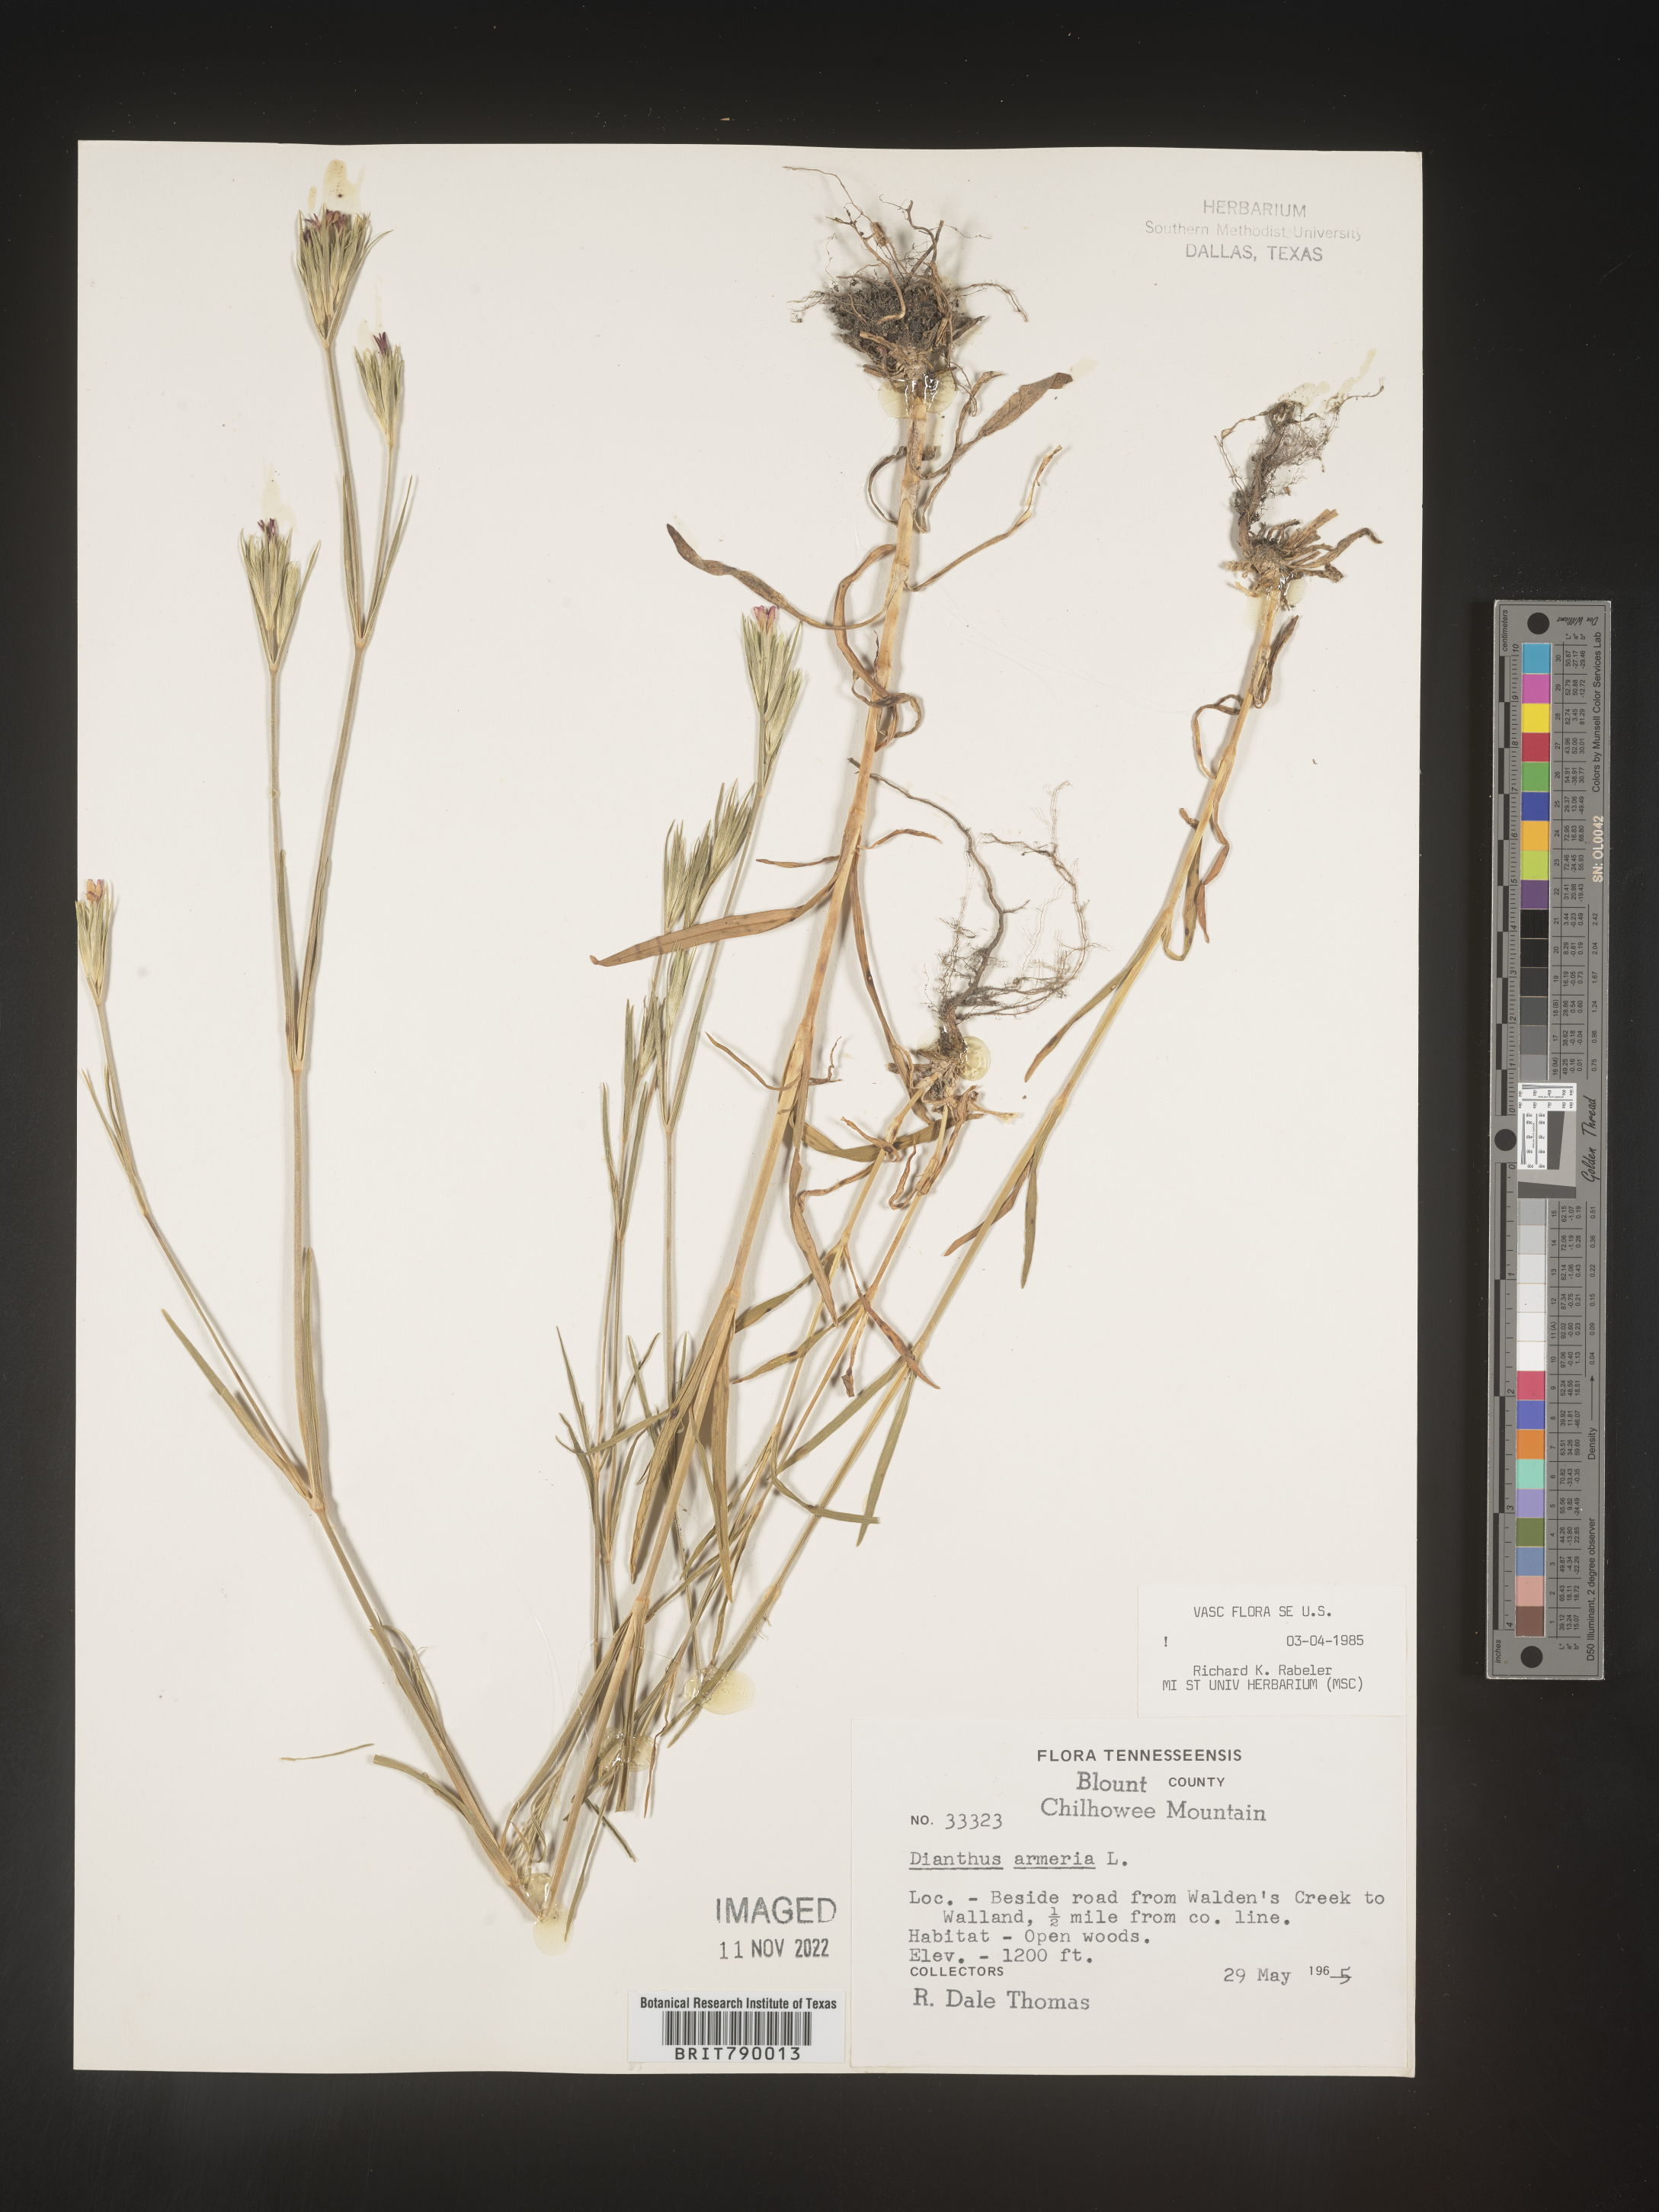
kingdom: Plantae
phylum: Tracheophyta
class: Magnoliopsida
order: Caryophyllales
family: Caryophyllaceae
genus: Dianthus
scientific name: Dianthus armeria
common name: Deptford pink
